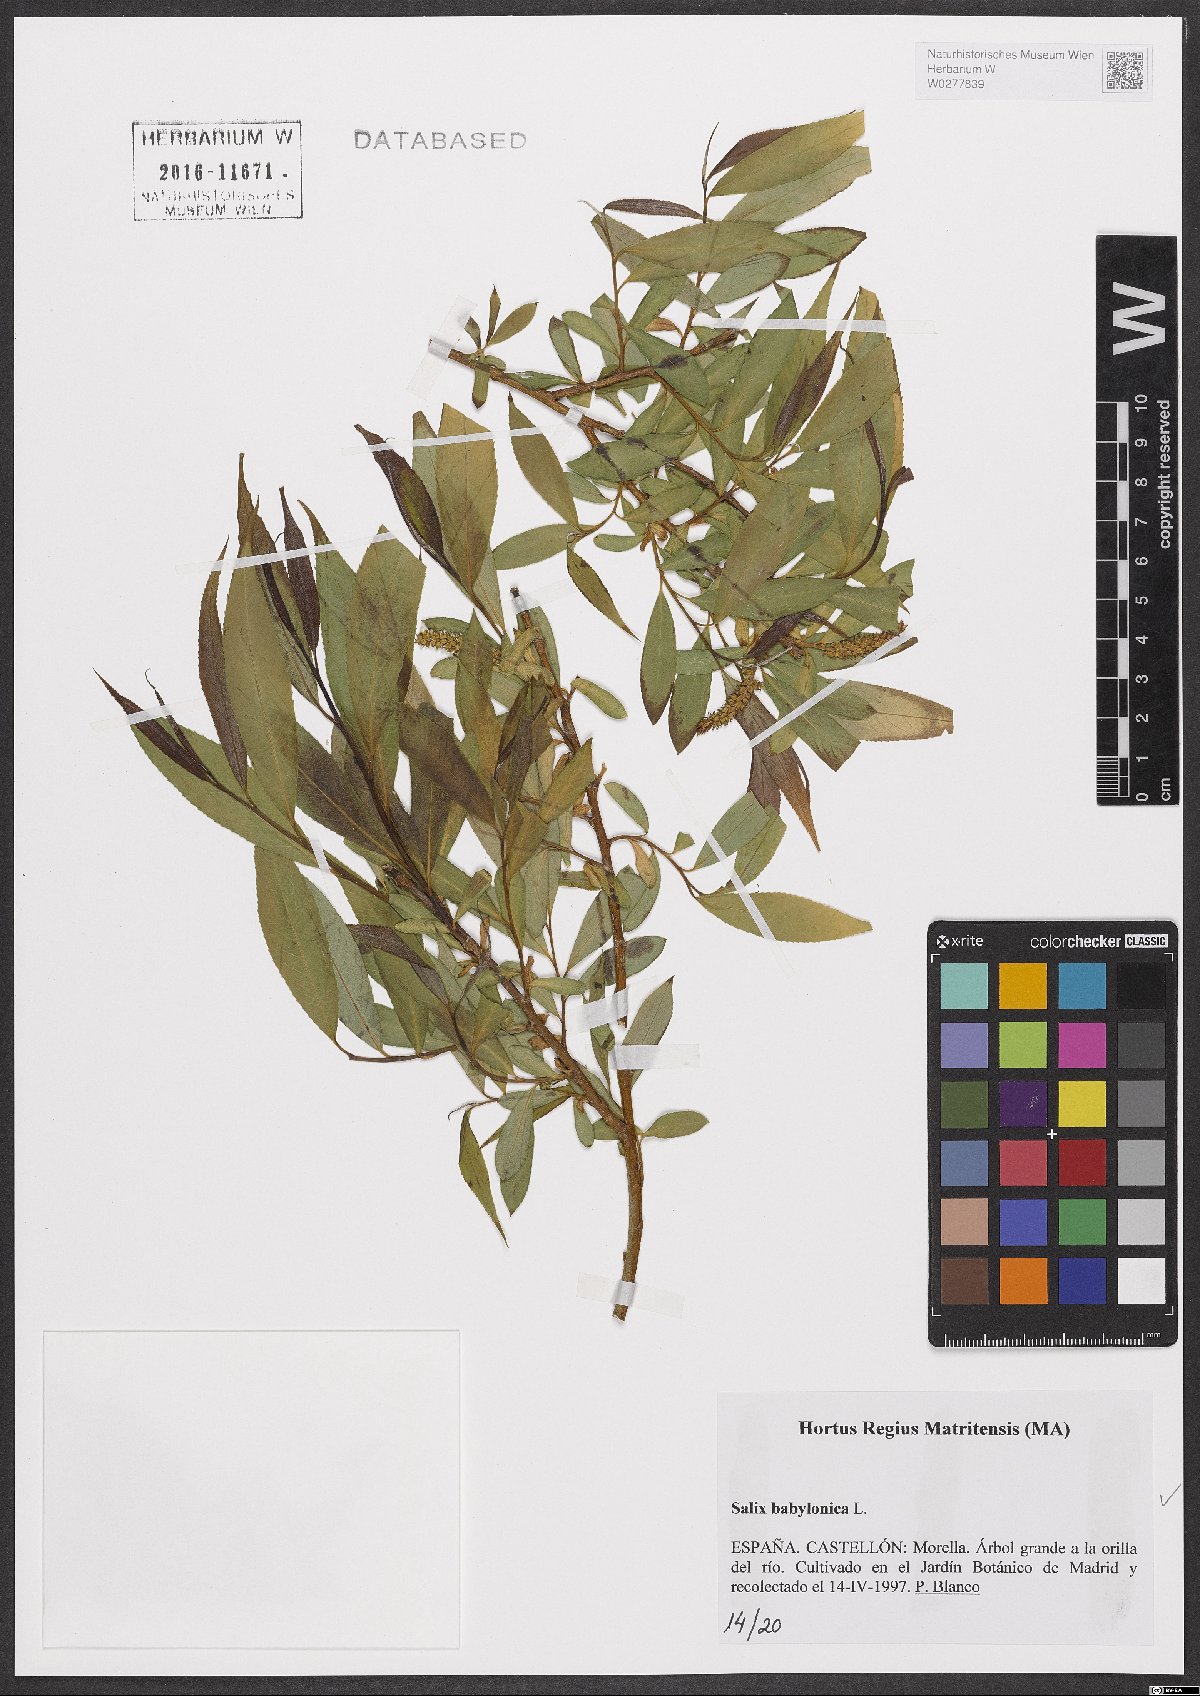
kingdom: Plantae
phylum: Tracheophyta
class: Magnoliopsida
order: Malpighiales
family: Salicaceae
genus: Salix
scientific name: Salix babylonica
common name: Weeping willow
